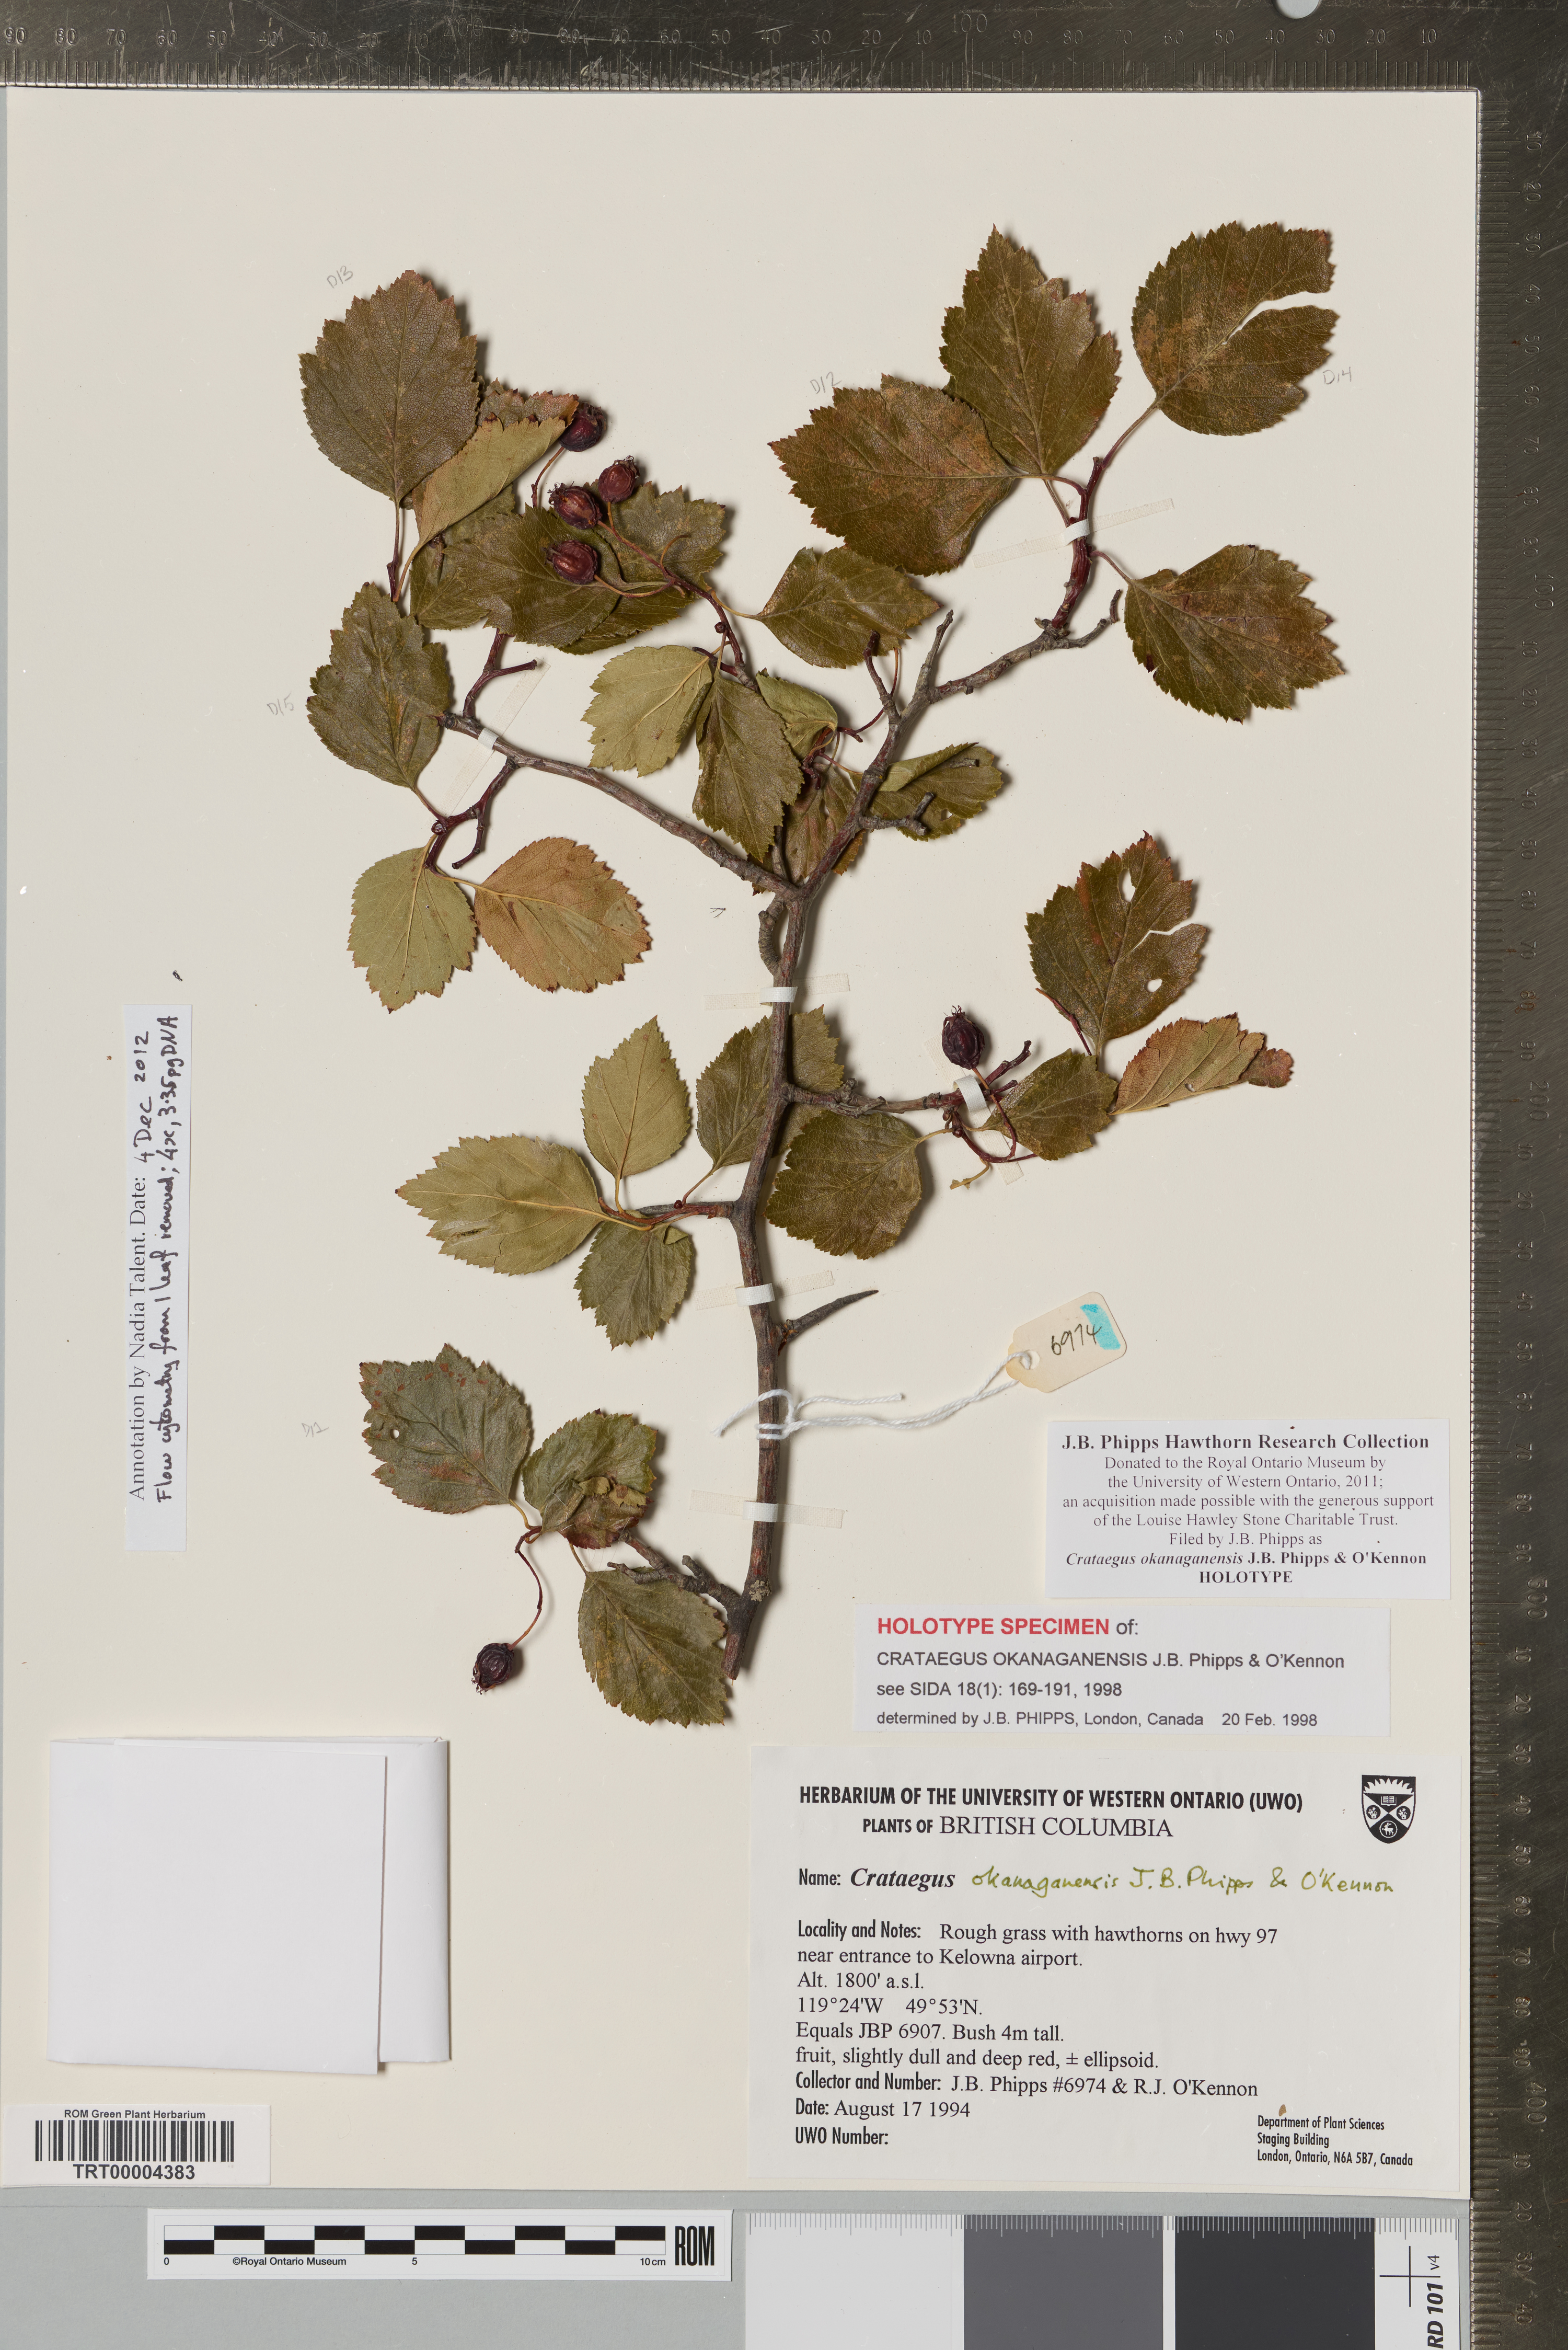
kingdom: Plantae
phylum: Tracheophyta
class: Magnoliopsida
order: Rosales
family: Rosaceae
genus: Crataegus
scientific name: Crataegus okanaganensis
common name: Okanagan valley hawthorn
